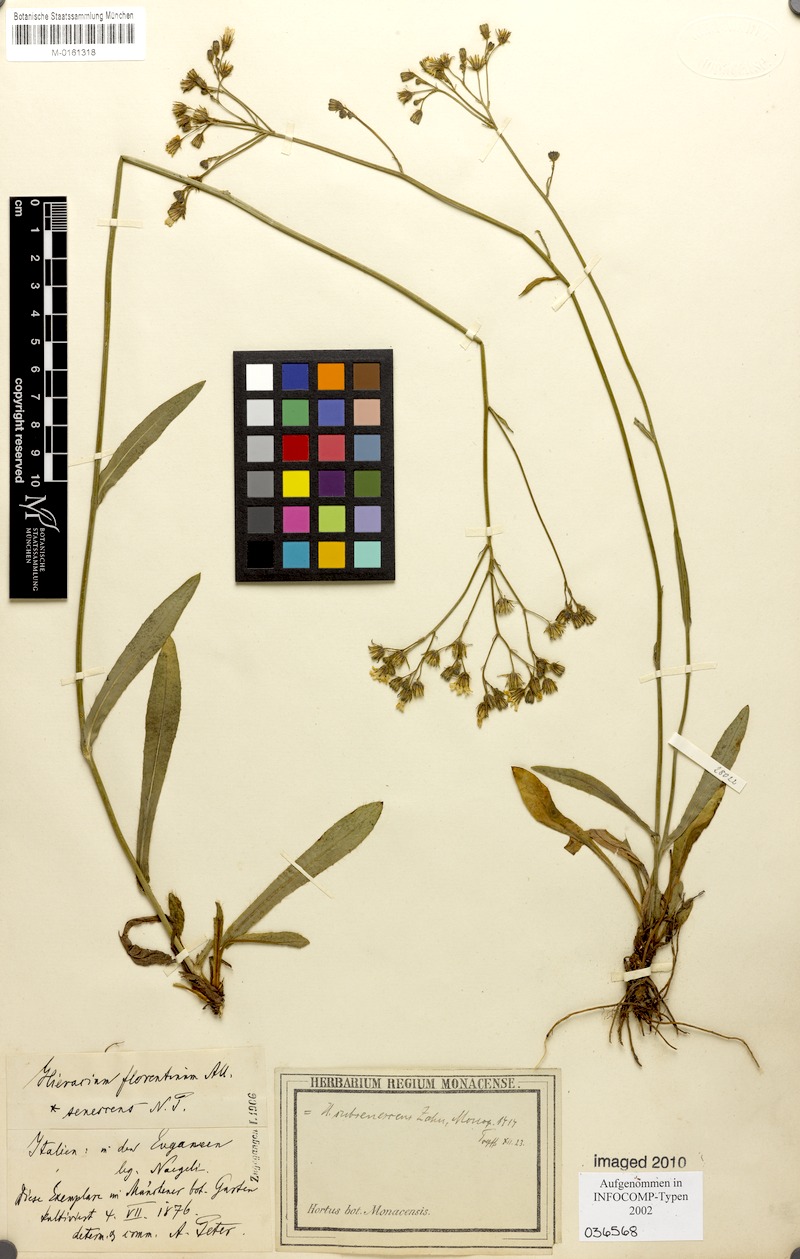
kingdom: Plantae
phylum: Tracheophyta
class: Magnoliopsida
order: Asterales
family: Asteraceae
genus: Pilosella
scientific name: Pilosella piloselloides
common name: Glaucous king-devil
